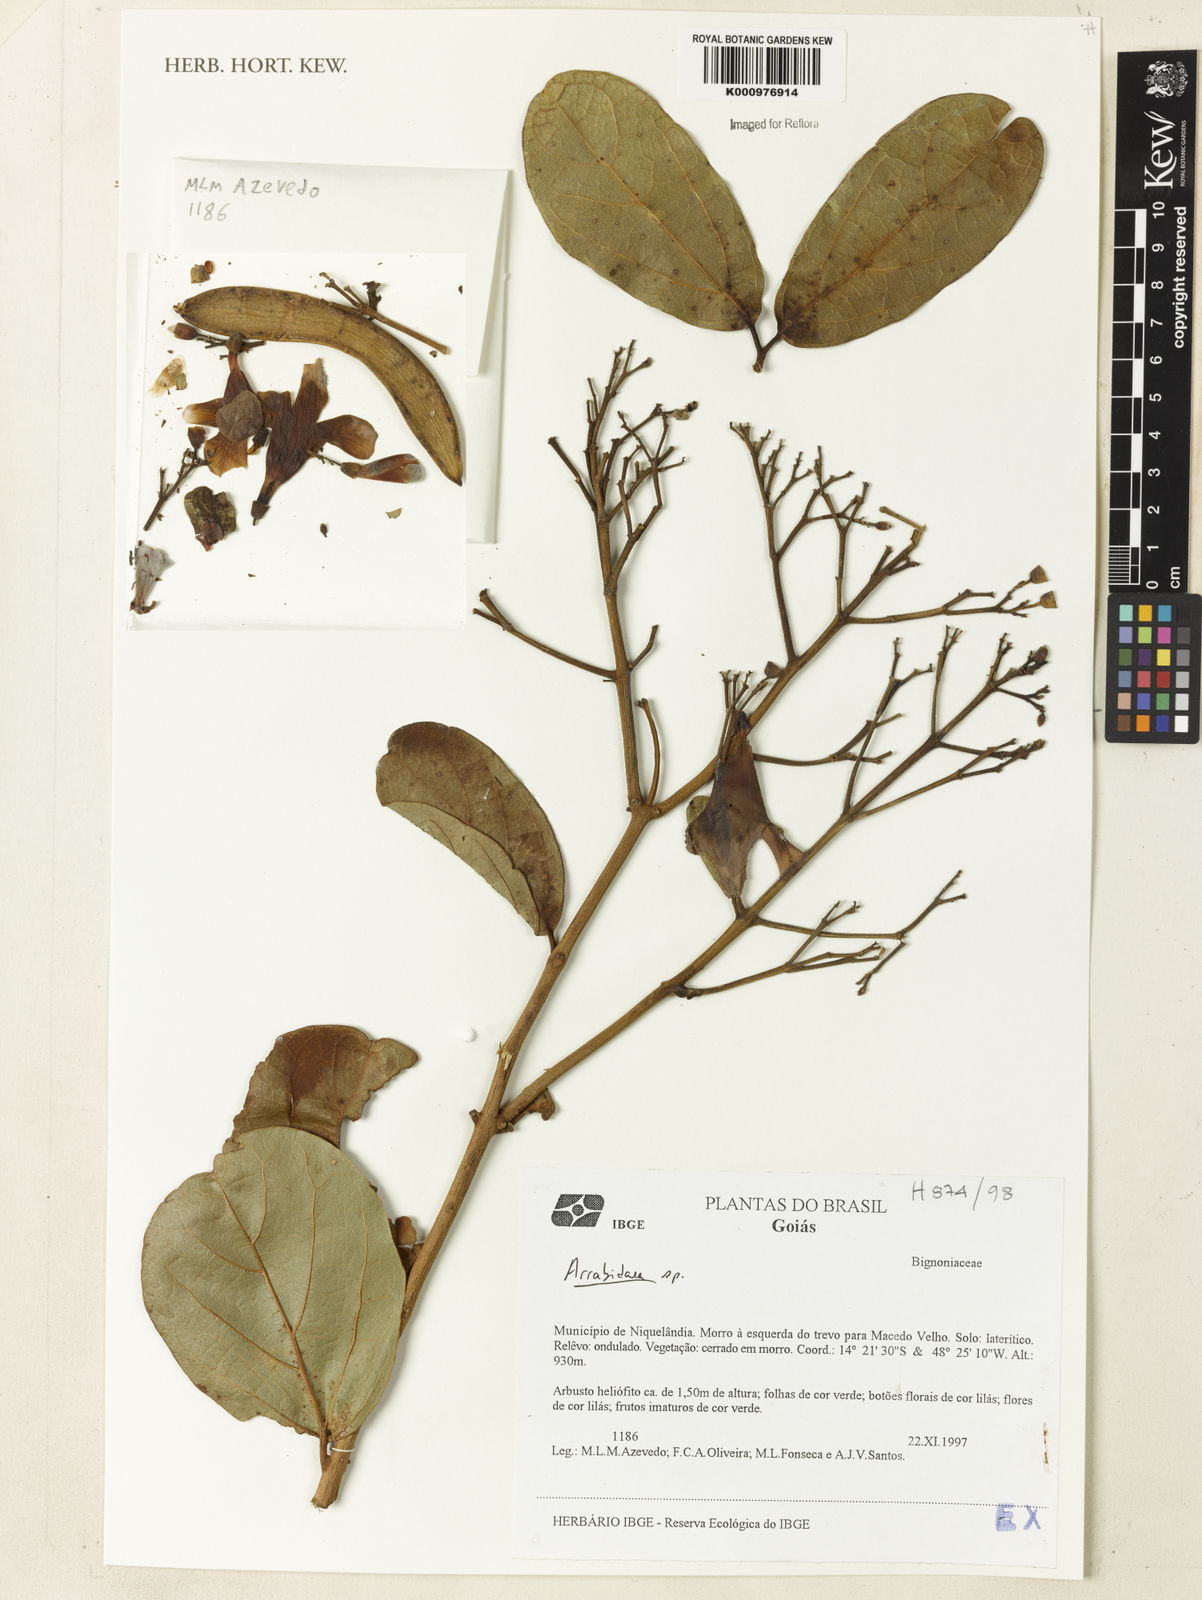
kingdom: Plantae
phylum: Tracheophyta
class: Magnoliopsida
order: Rosales
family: Rhamnaceae
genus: Arrabidaea
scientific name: Arrabidaea
